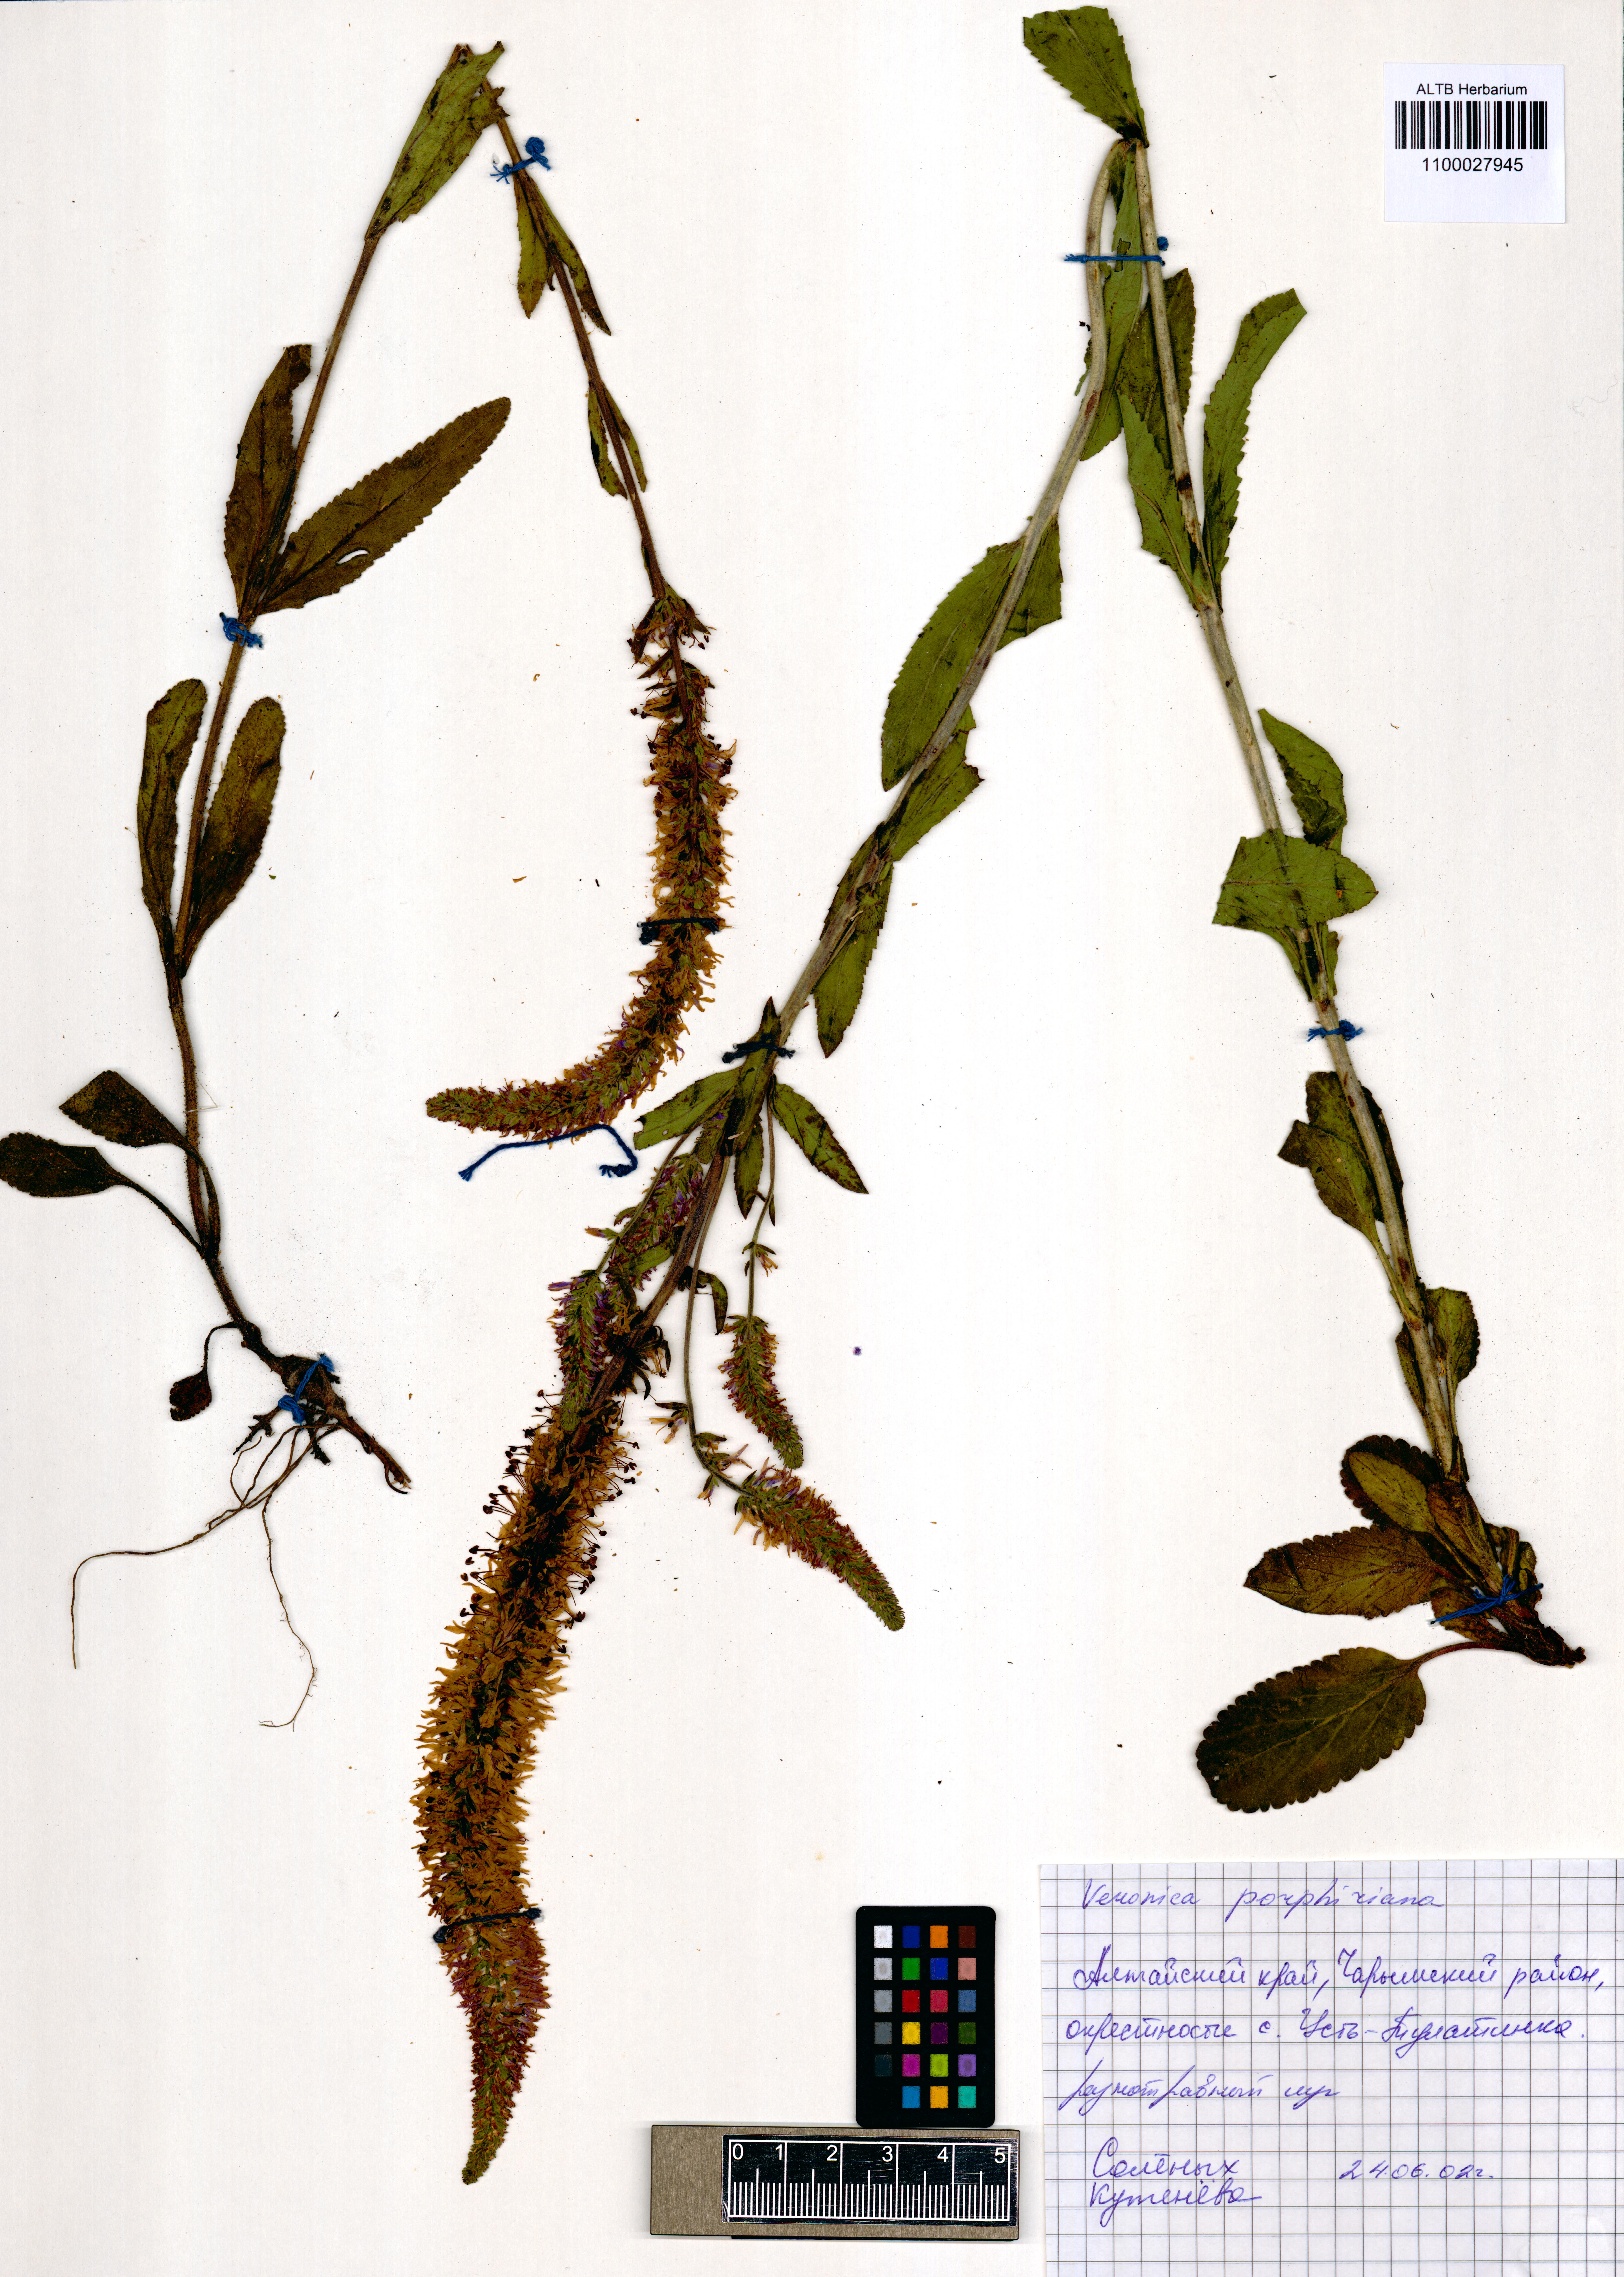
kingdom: Plantae
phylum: Tracheophyta
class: Magnoliopsida
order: Lamiales
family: Plantaginaceae
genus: Veronica
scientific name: Veronica porphyriana
